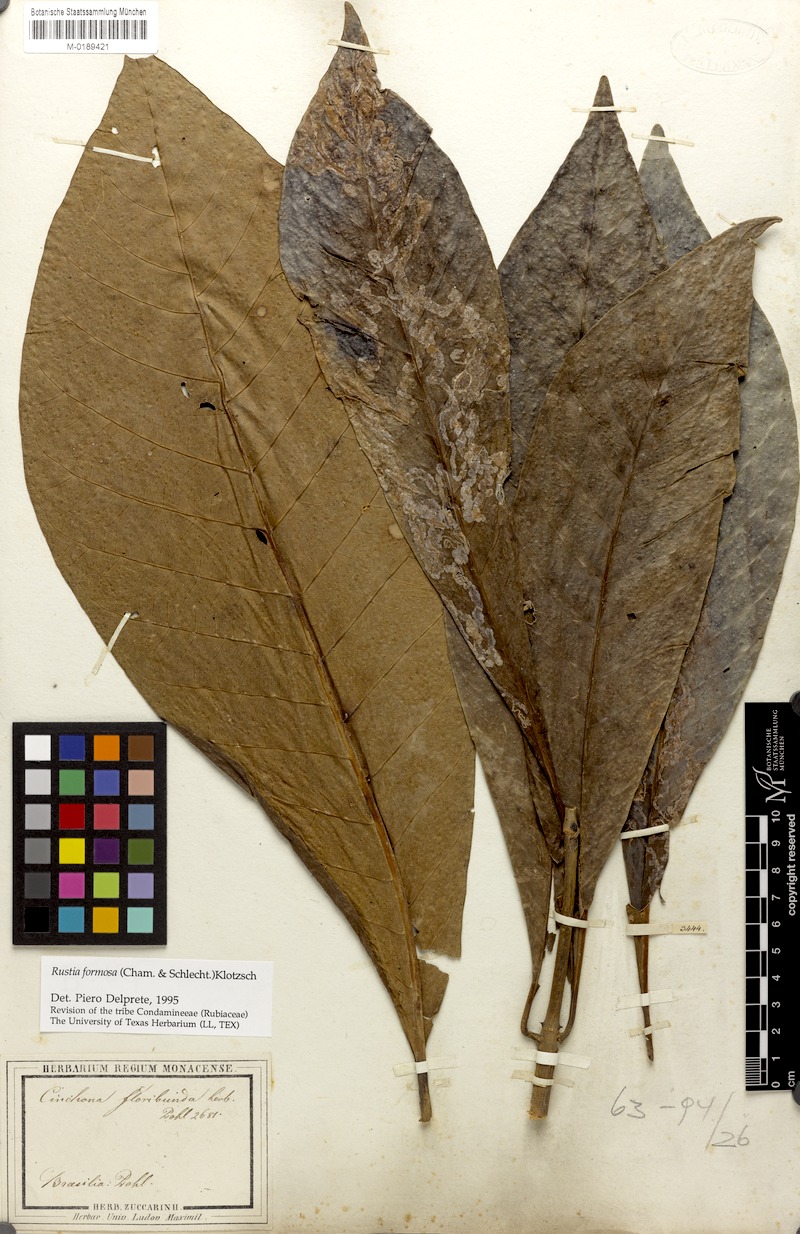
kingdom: Plantae
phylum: Tracheophyta
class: Magnoliopsida
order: Gentianales
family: Rubiaceae
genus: Rustia
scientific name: Rustia formosa
